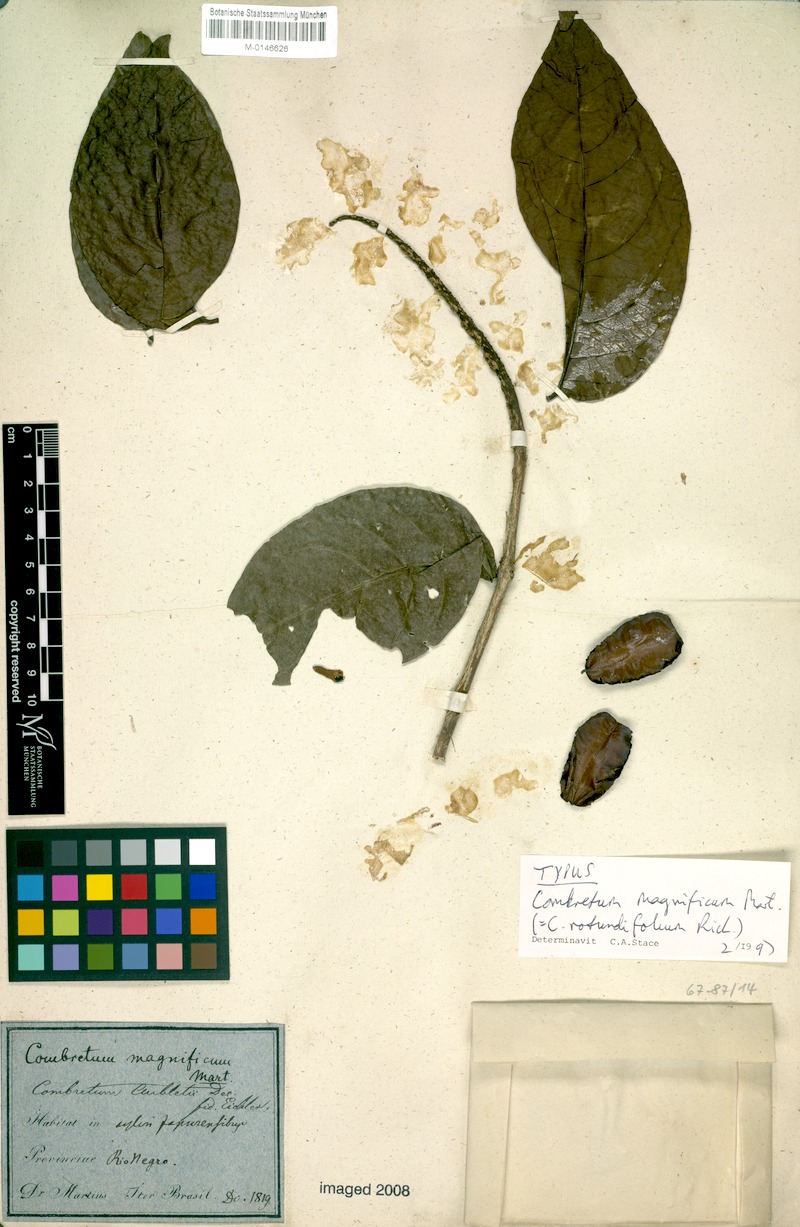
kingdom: Plantae
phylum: Tracheophyta
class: Magnoliopsida
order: Myrtales
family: Combretaceae
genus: Combretum
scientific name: Combretum rotundifolium
